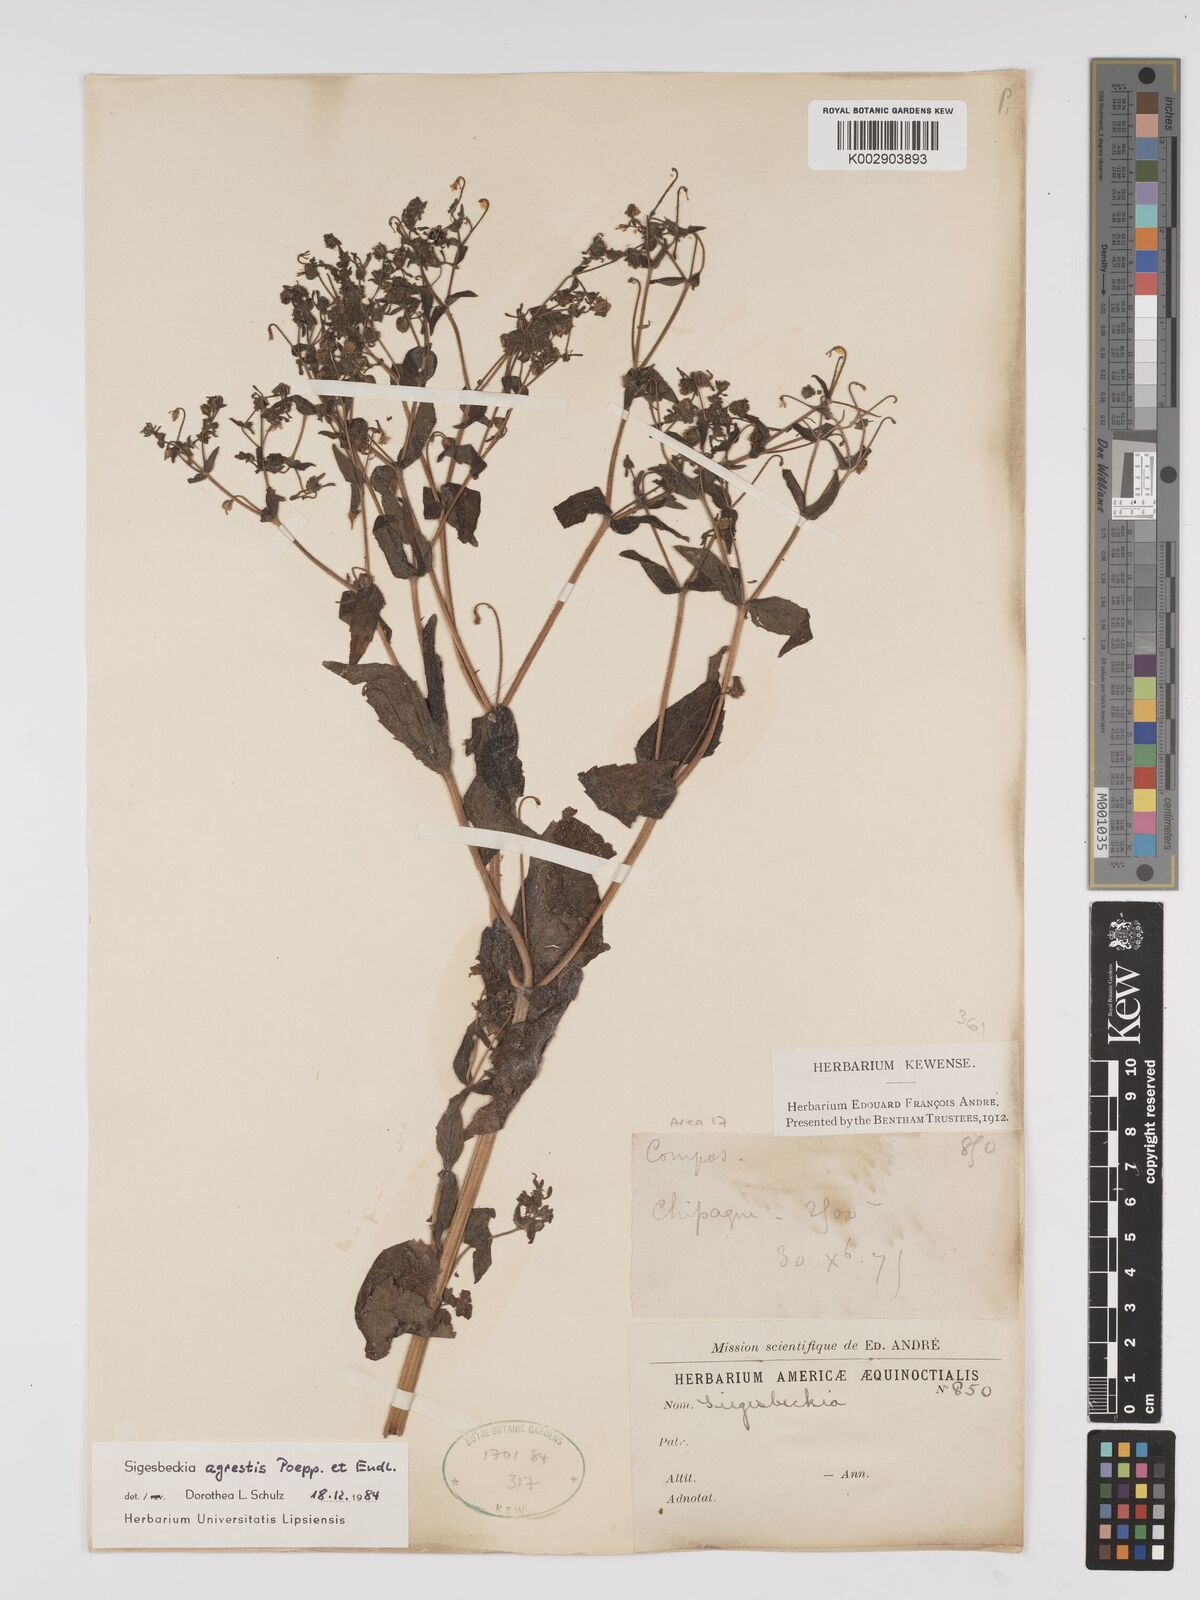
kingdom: Plantae
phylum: Tracheophyta
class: Magnoliopsida
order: Asterales
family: Asteraceae
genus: Sigesbeckia
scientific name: Sigesbeckia agrestis
